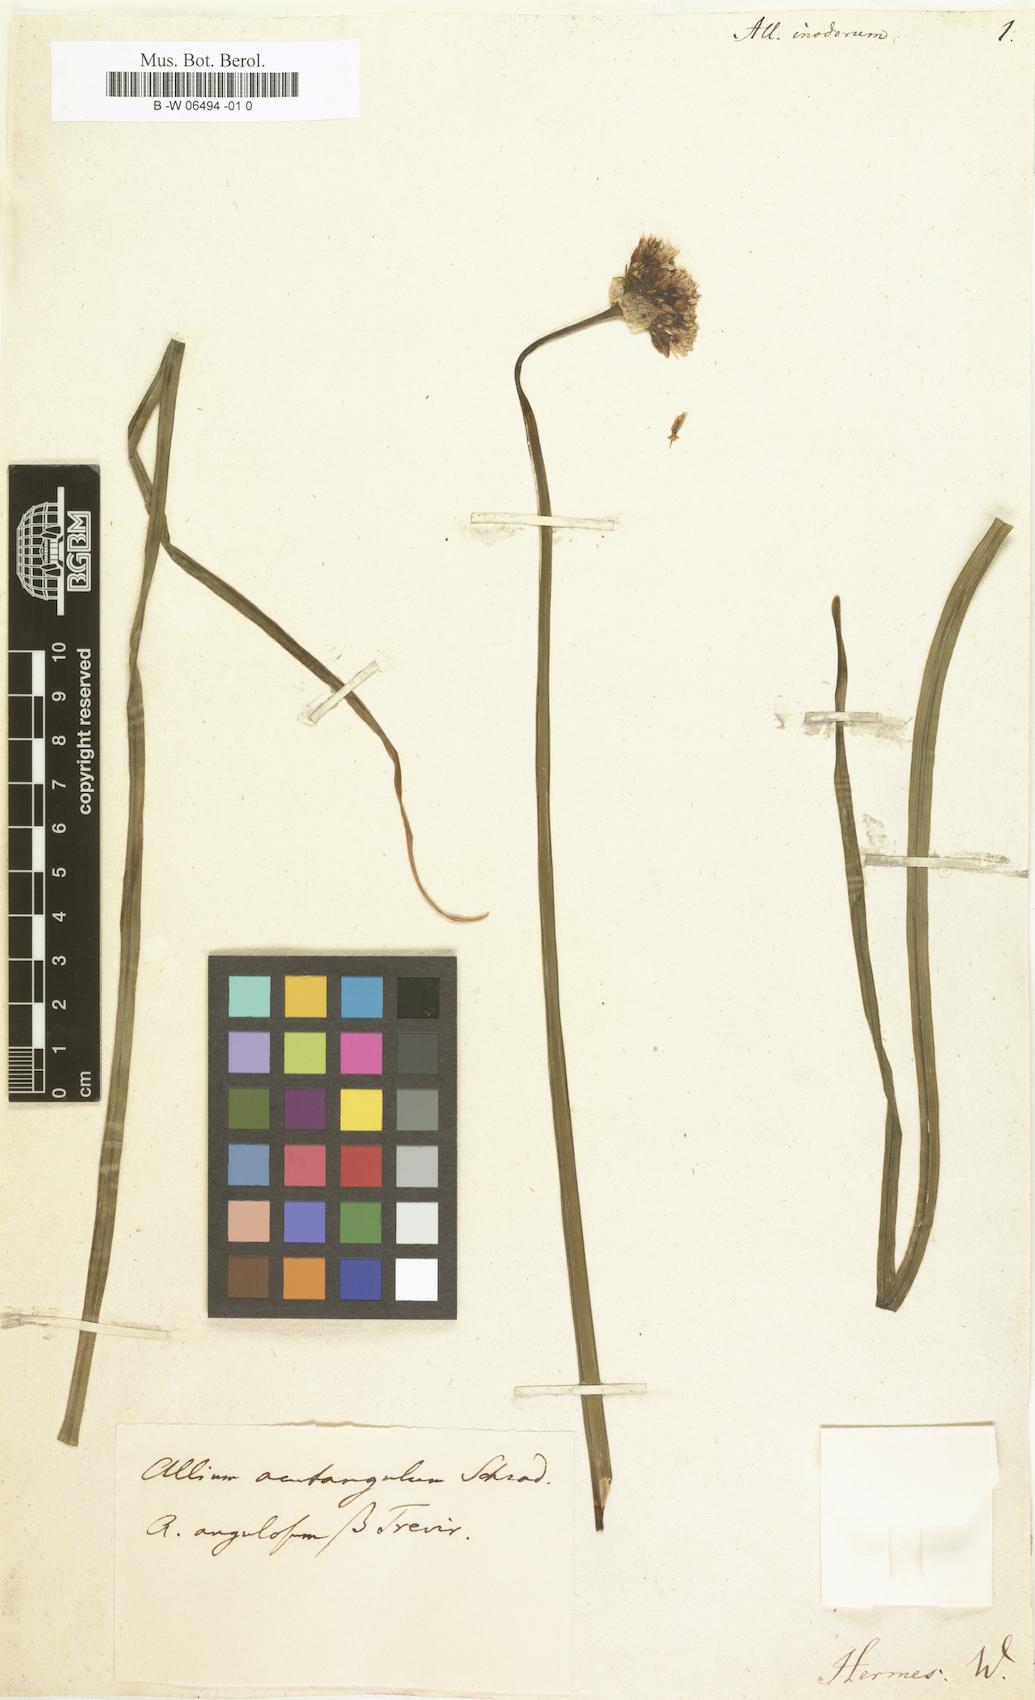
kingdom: Plantae
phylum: Tracheophyta
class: Liliopsida
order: Asparagales
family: Amaryllidaceae
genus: Allium
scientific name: Allium
